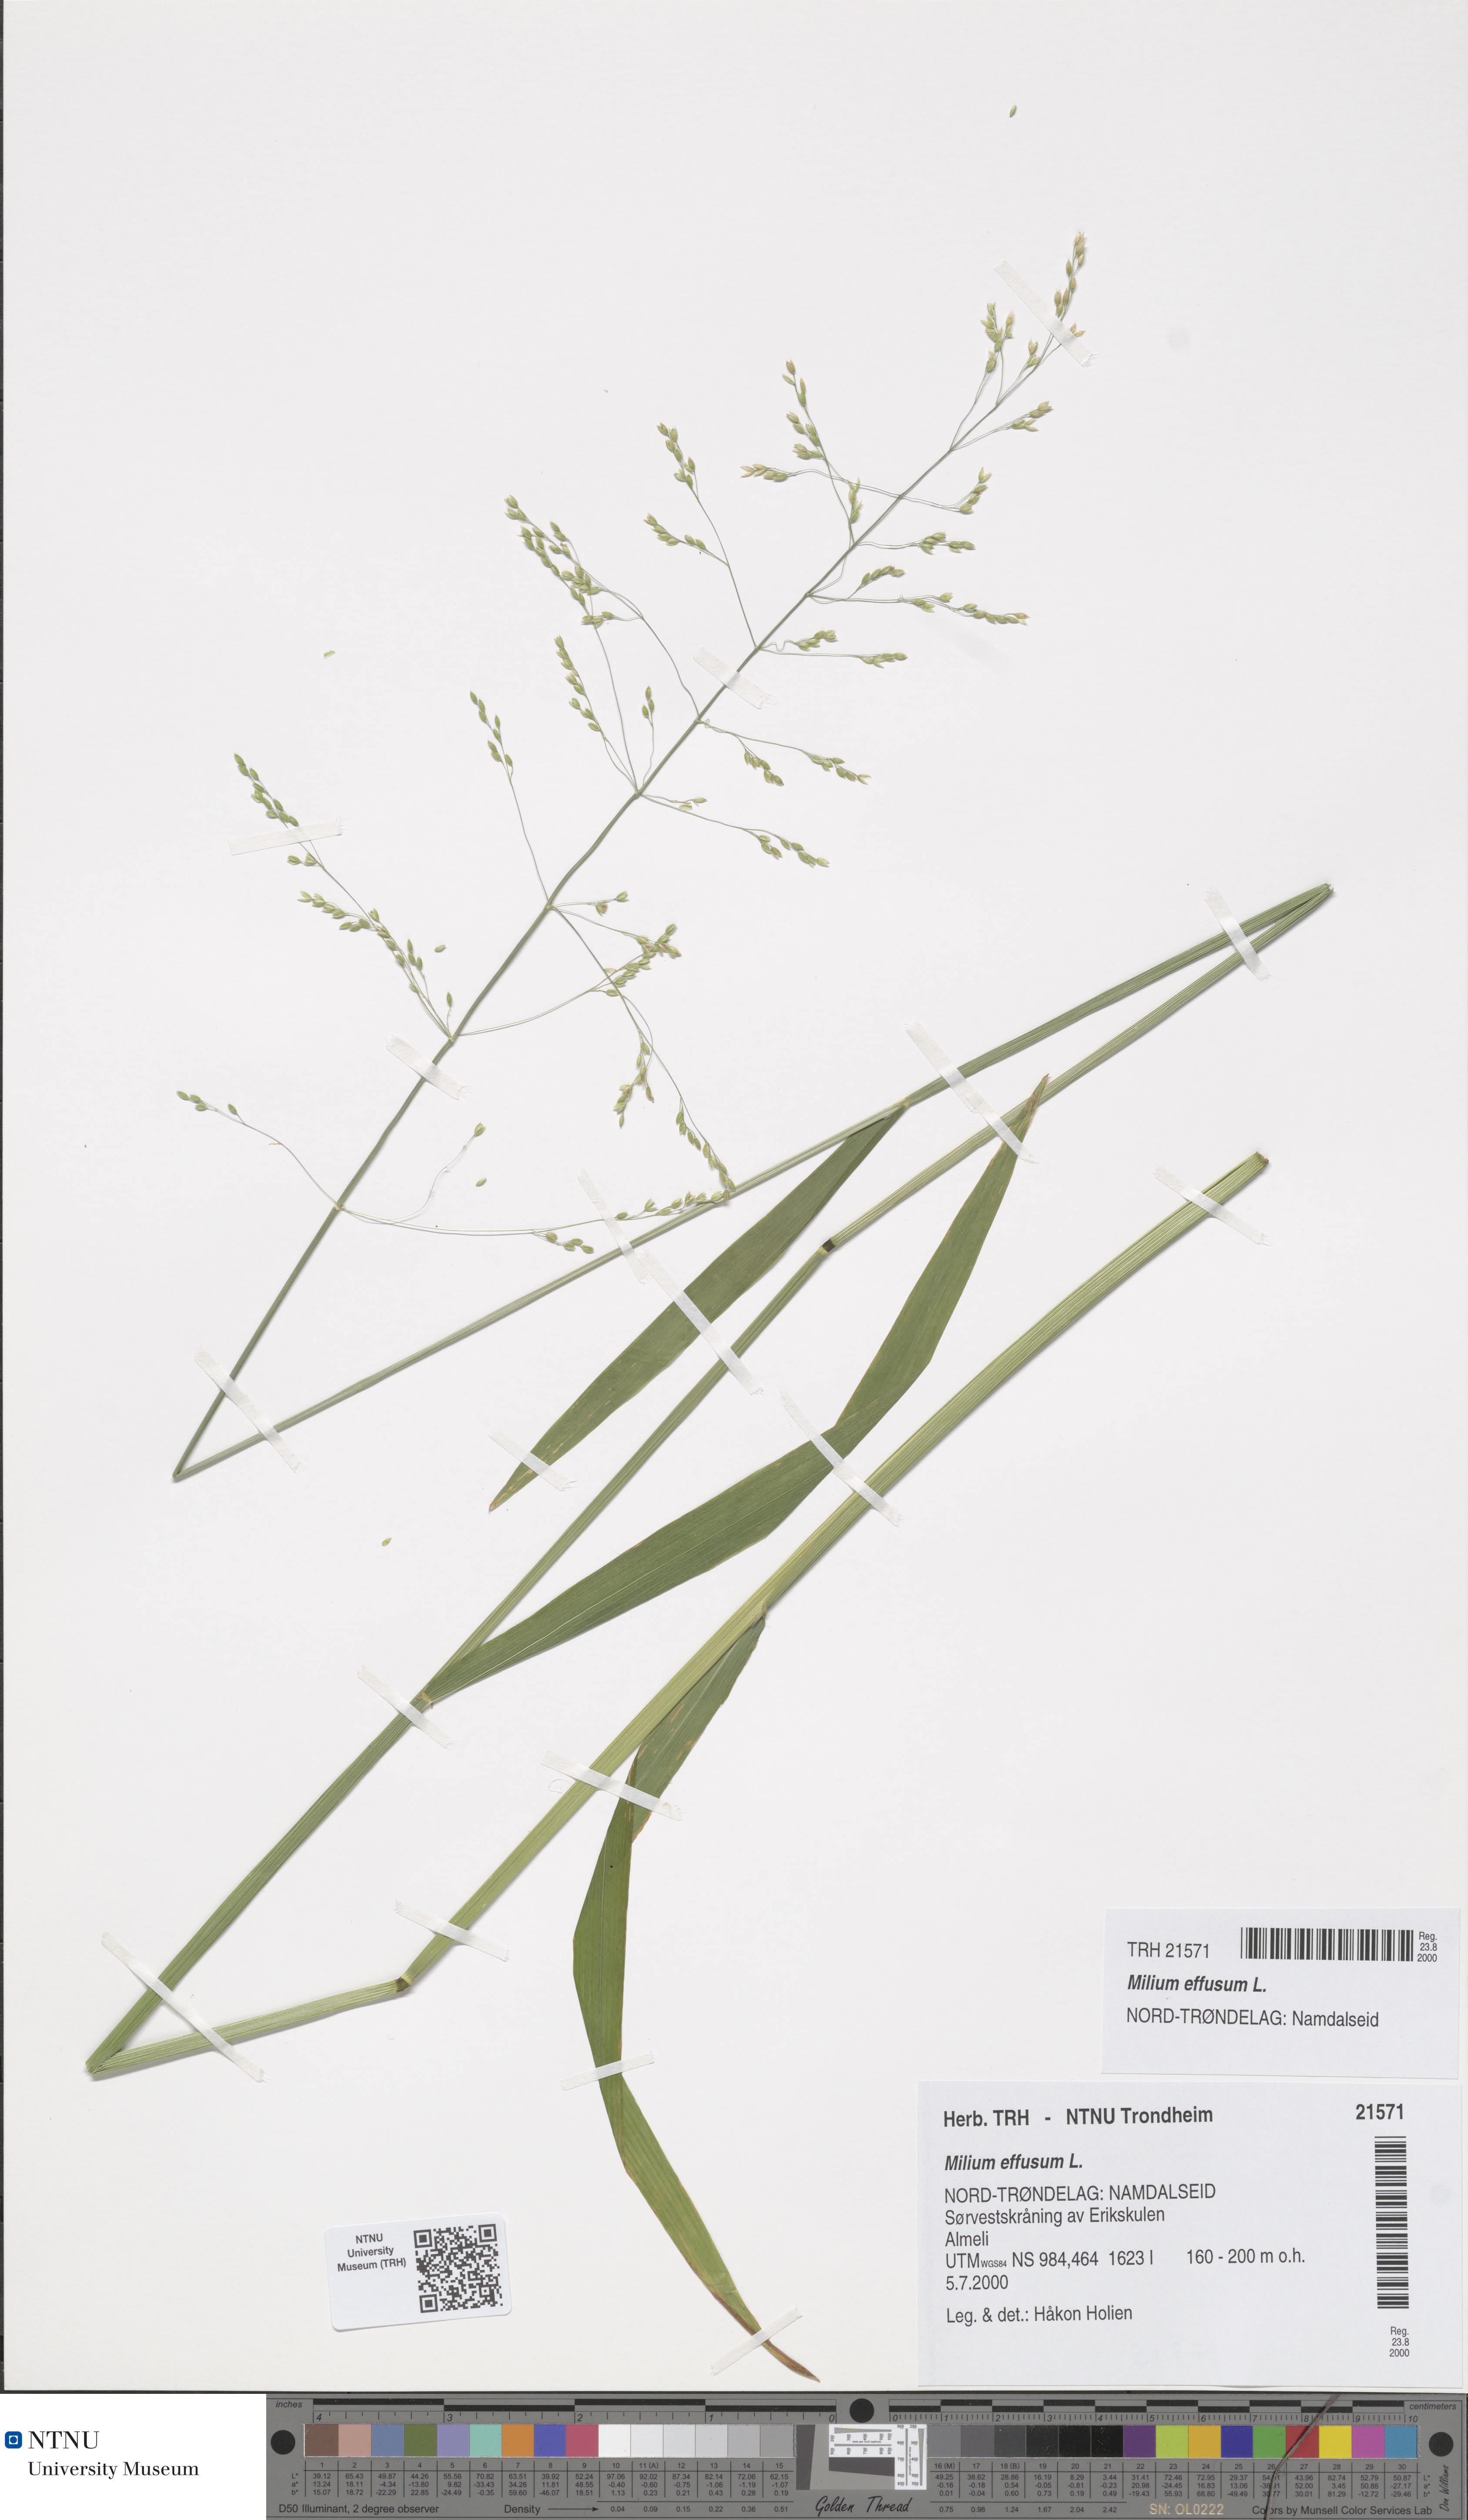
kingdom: Plantae
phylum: Tracheophyta
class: Liliopsida
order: Poales
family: Poaceae
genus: Milium
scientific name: Milium effusum
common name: Wood millet
